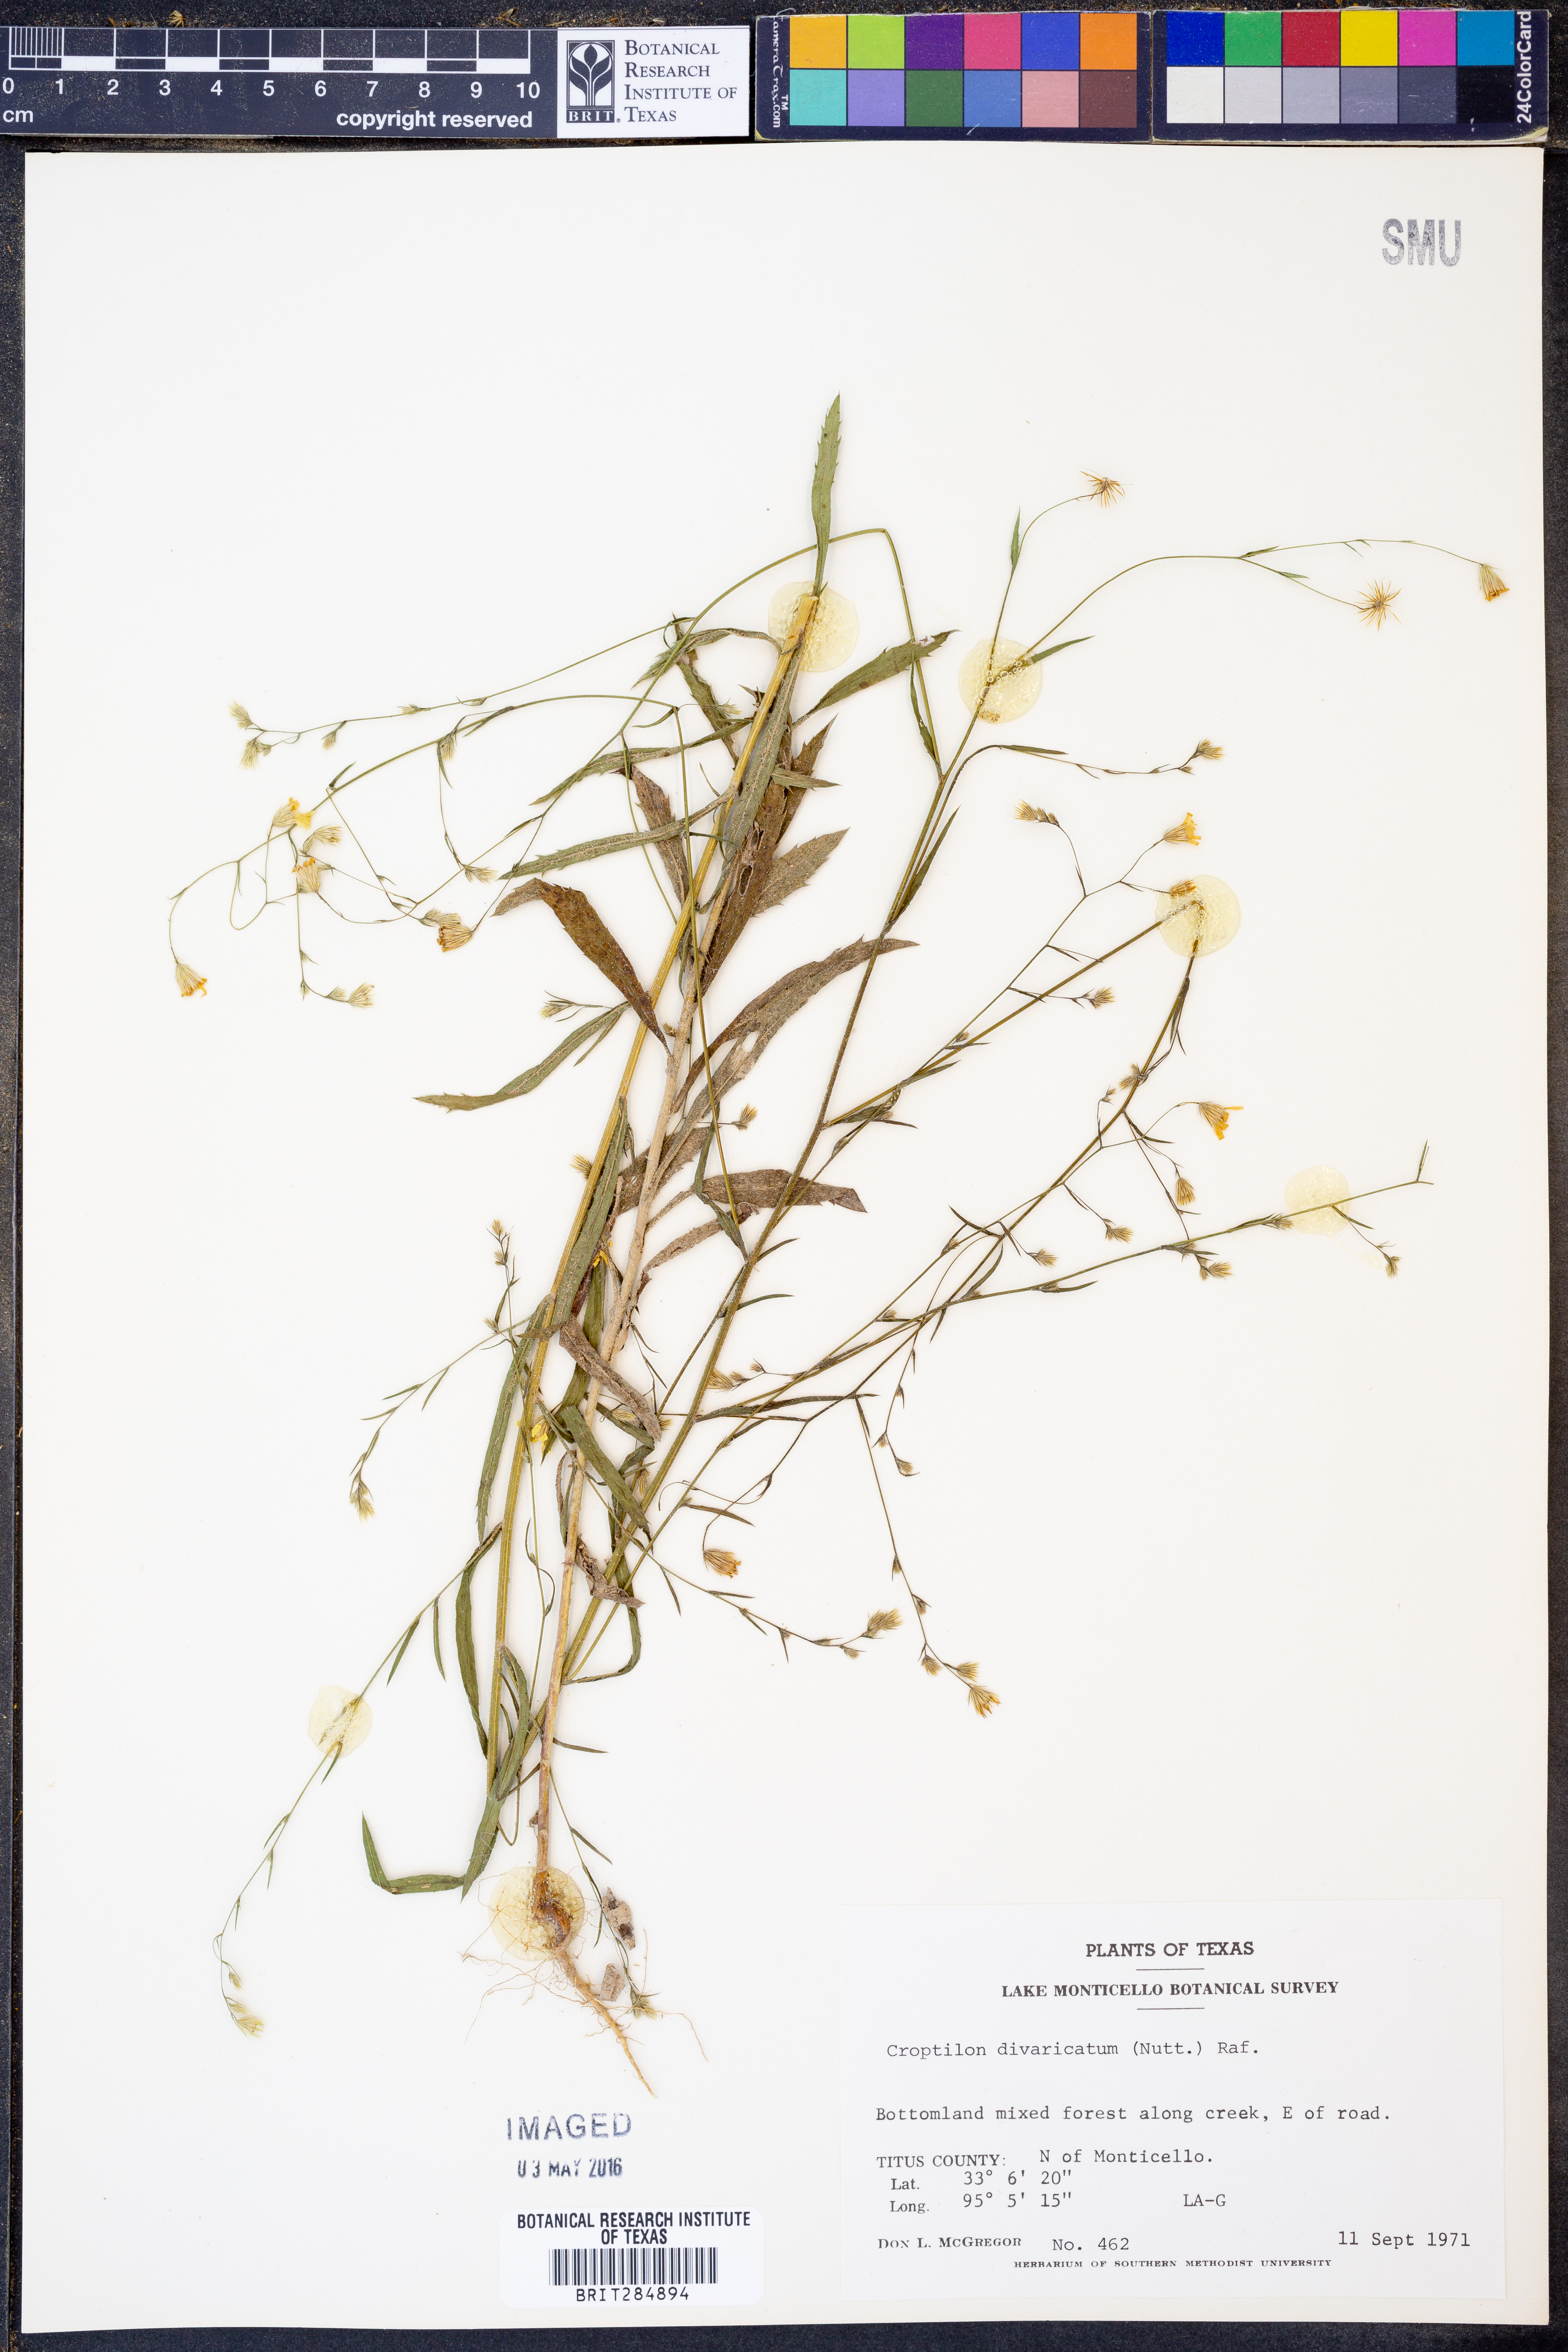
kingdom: Plantae
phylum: Tracheophyta
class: Magnoliopsida
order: Asterales
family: Asteraceae
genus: Croptilon
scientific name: Croptilon divaricatum
